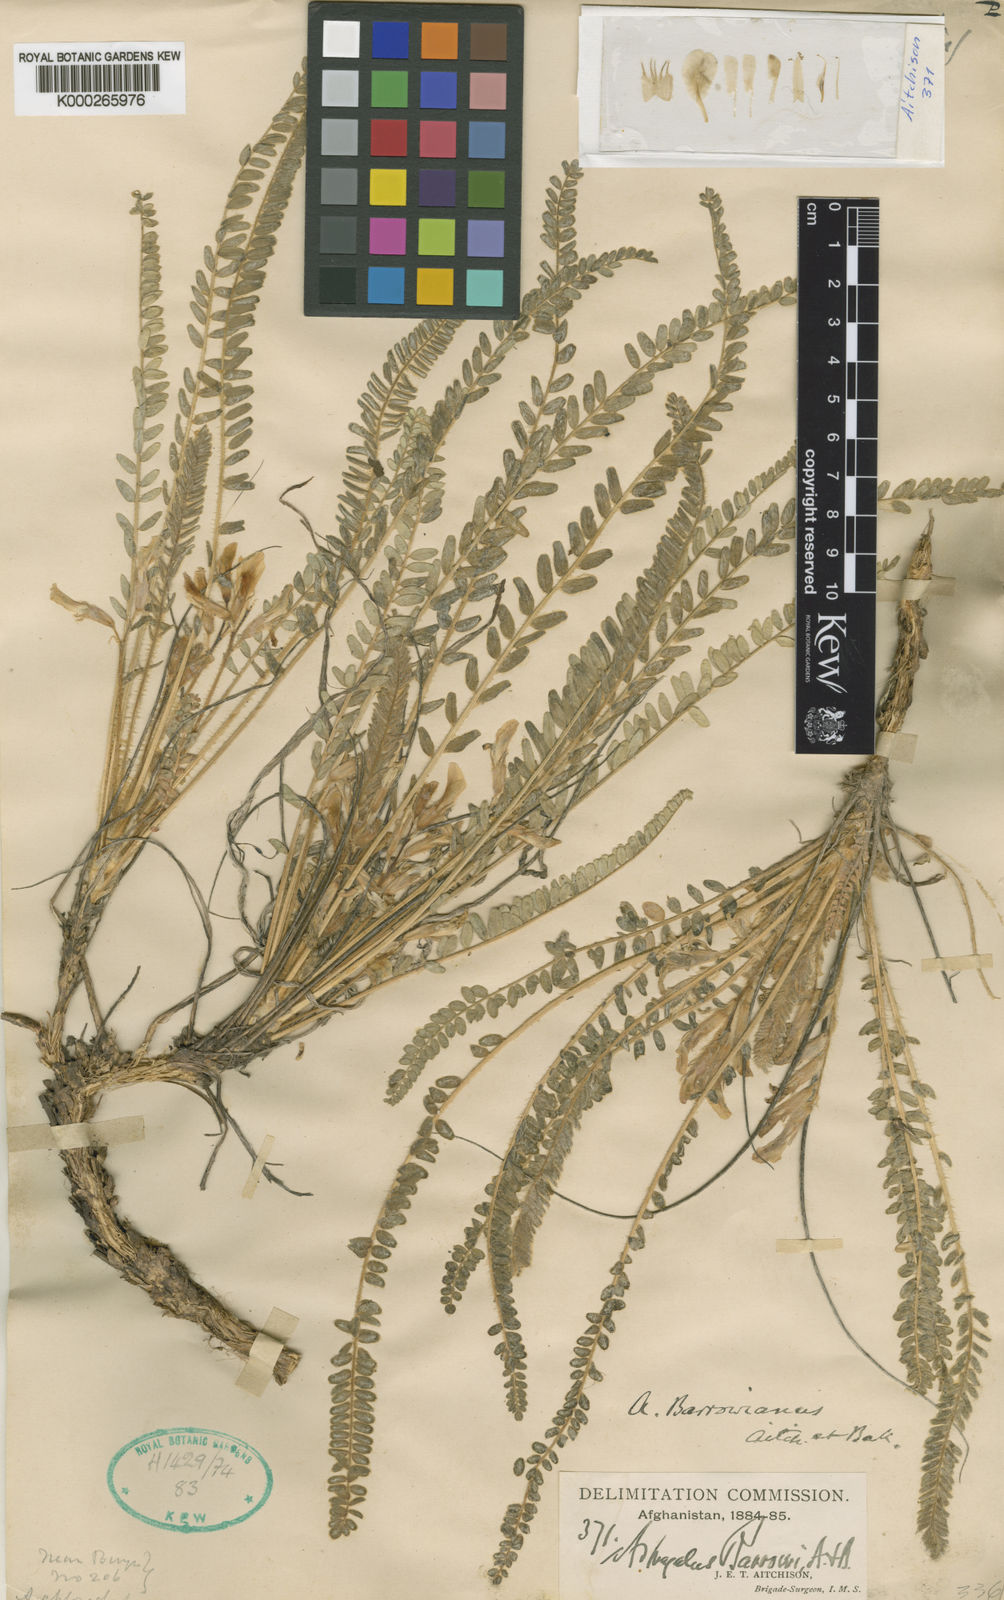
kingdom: Plantae
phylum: Tracheophyta
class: Magnoliopsida
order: Fabales
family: Fabaceae
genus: Astragalus
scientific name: Astragalus citrinus
